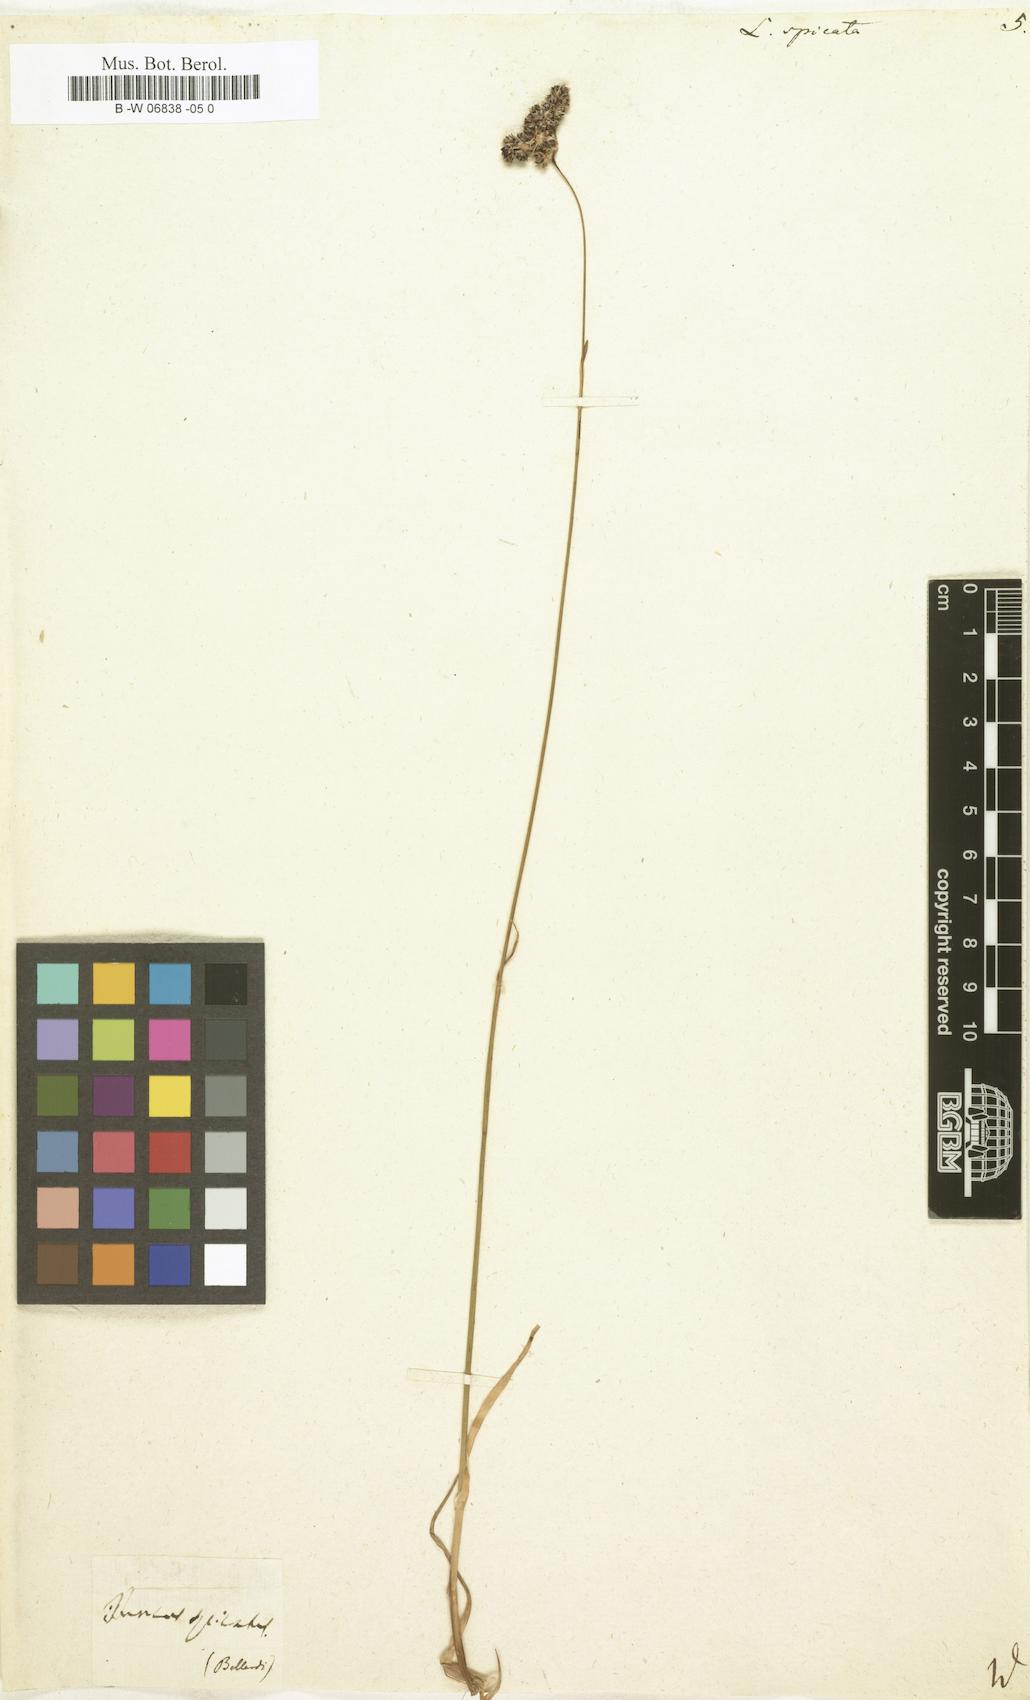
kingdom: Plantae
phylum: Tracheophyta
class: Liliopsida
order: Poales
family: Juncaceae
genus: Luzula
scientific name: Luzula spicata
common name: Spiked wood-rush
